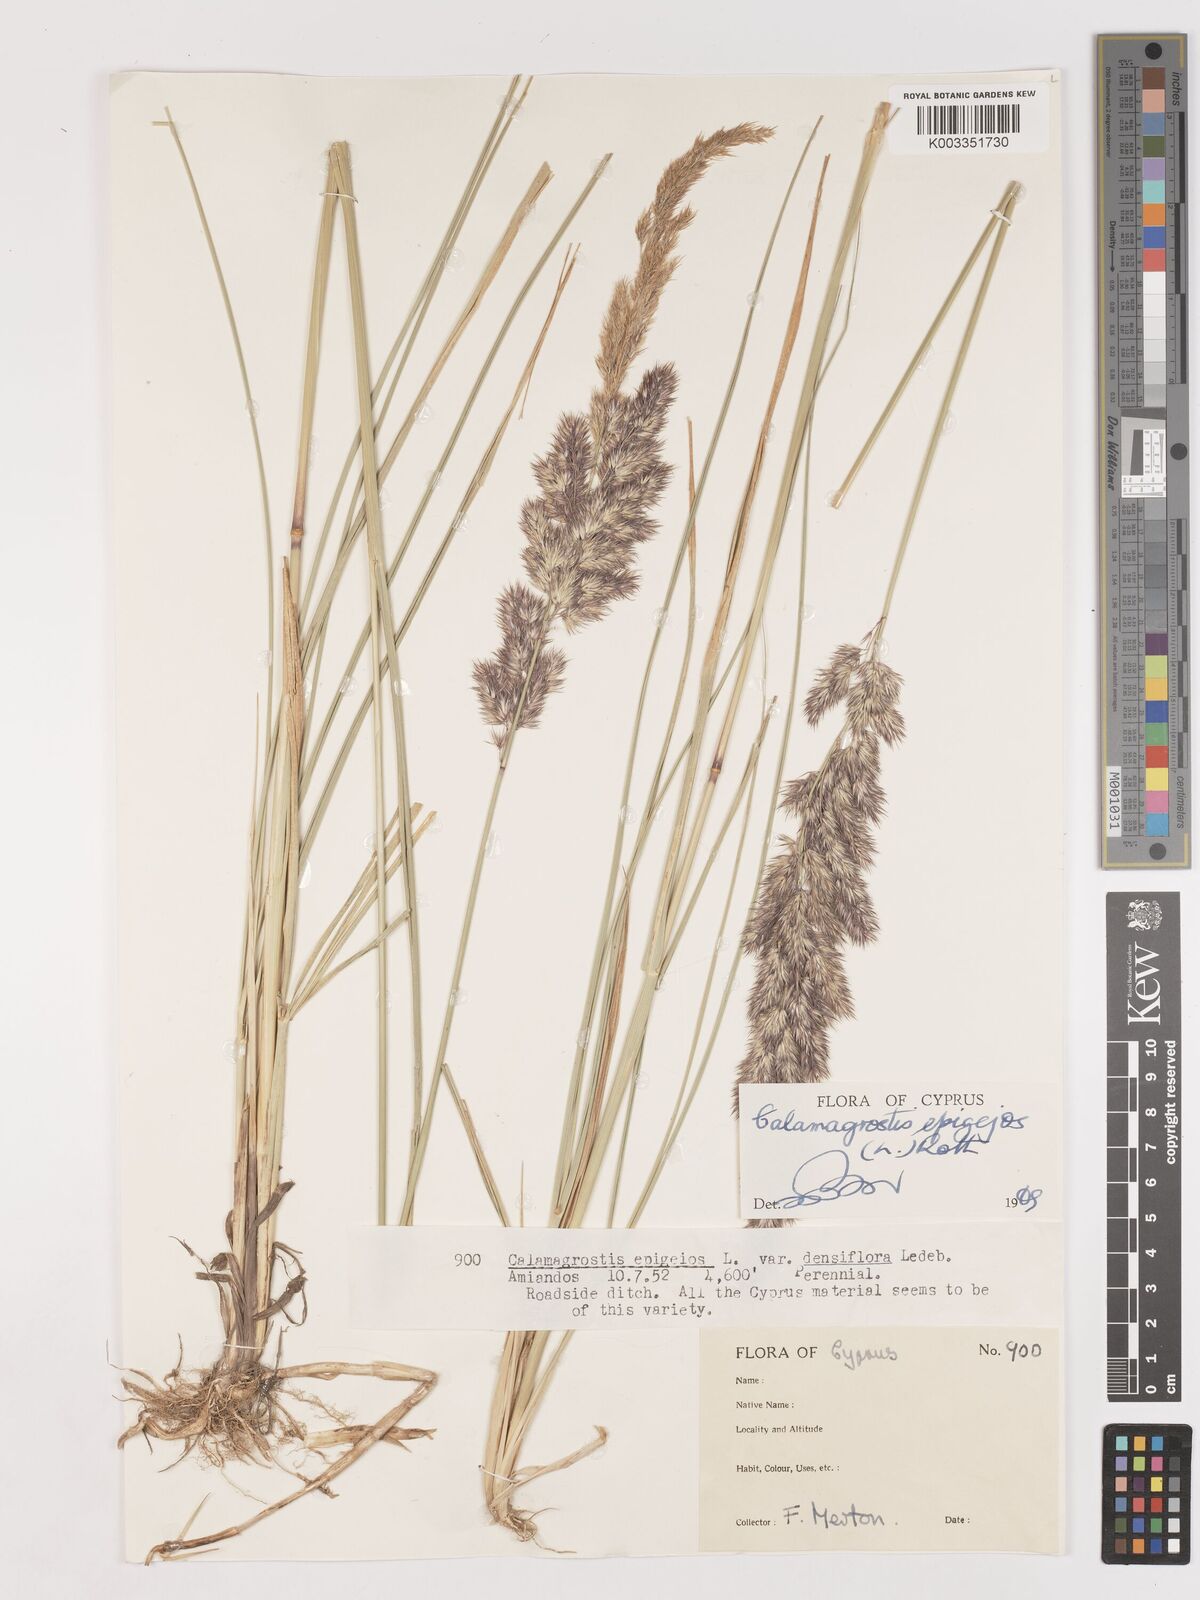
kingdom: Plantae
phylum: Tracheophyta
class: Liliopsida
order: Poales
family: Poaceae
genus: Calamagrostis
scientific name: Calamagrostis epigejos
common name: Wood small-reed
